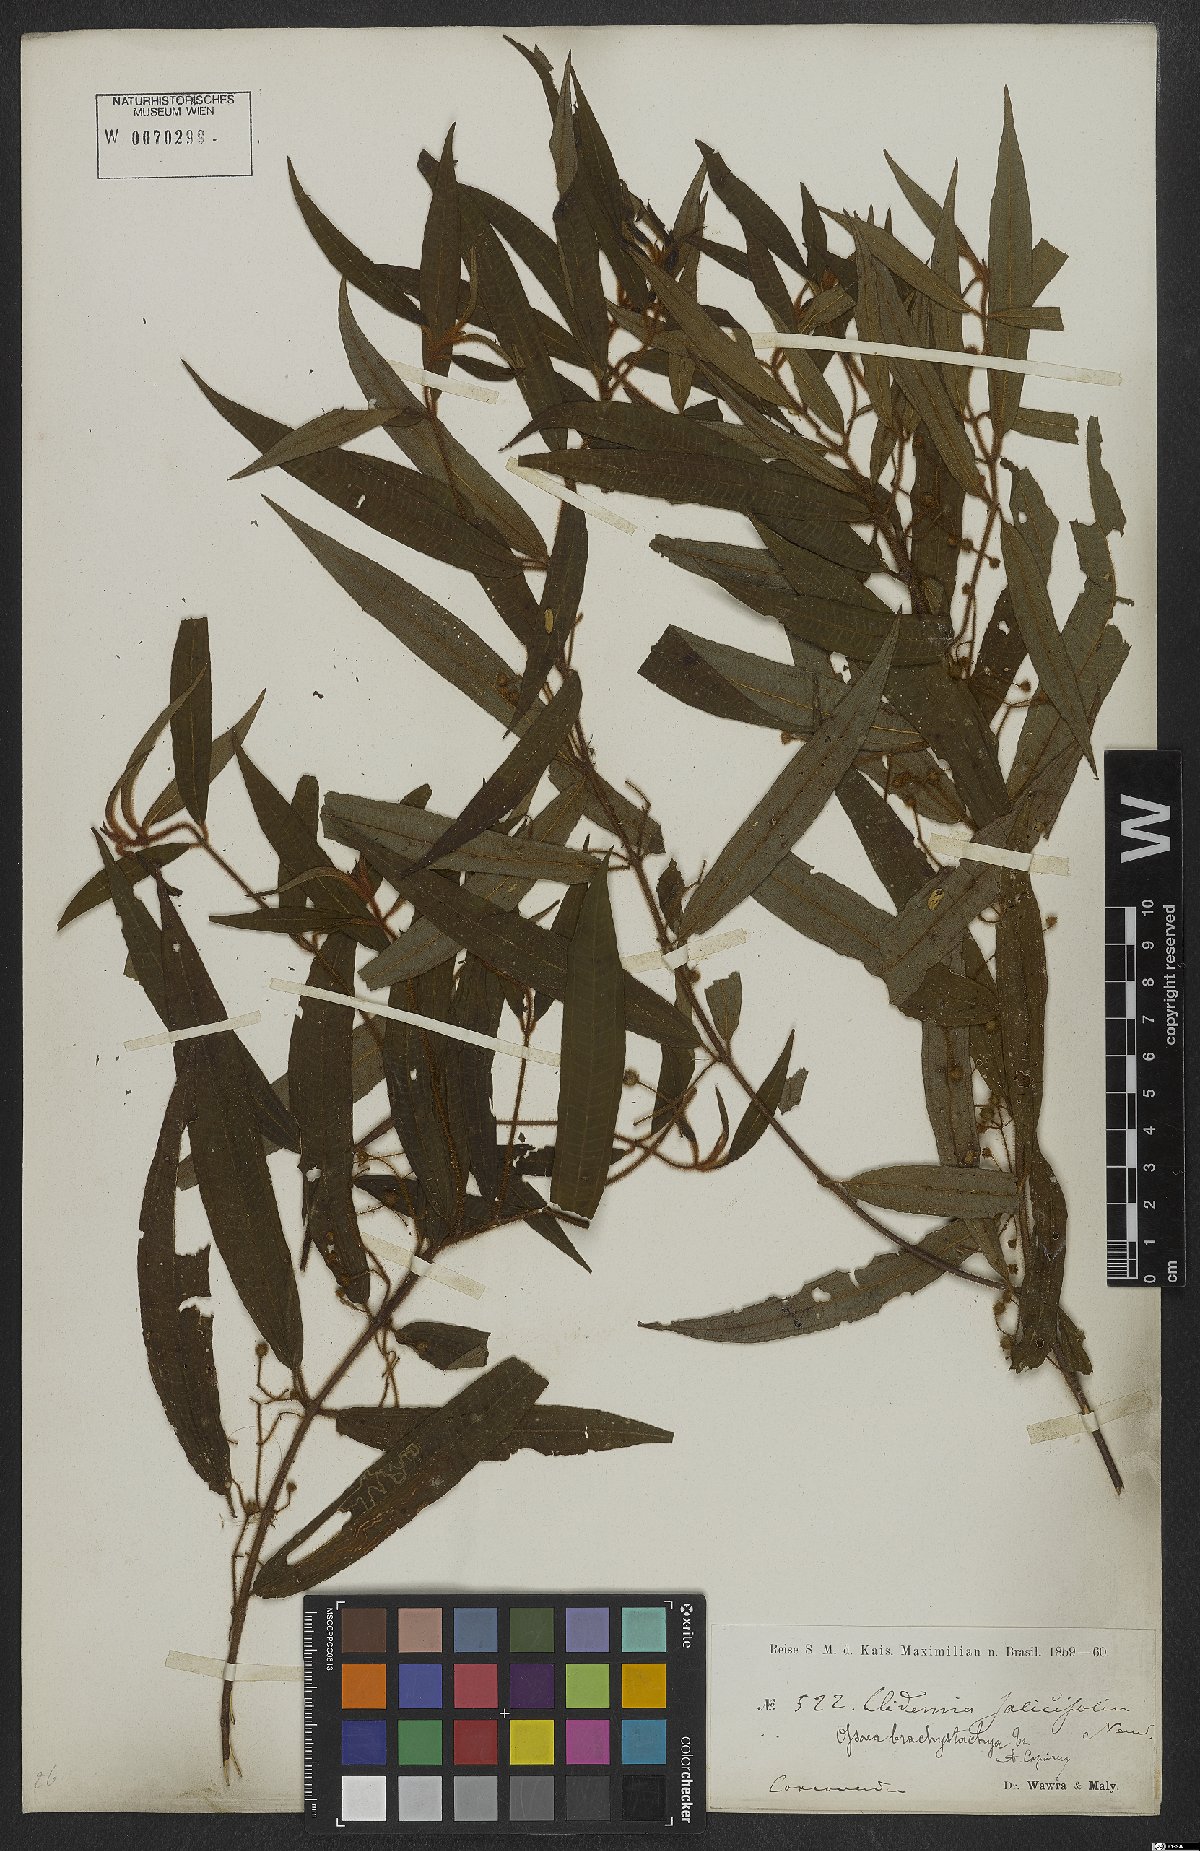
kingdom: Plantae
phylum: Tracheophyta
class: Magnoliopsida
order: Myrtales
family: Melastomataceae
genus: Miconia
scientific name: Miconia amygdaloides
